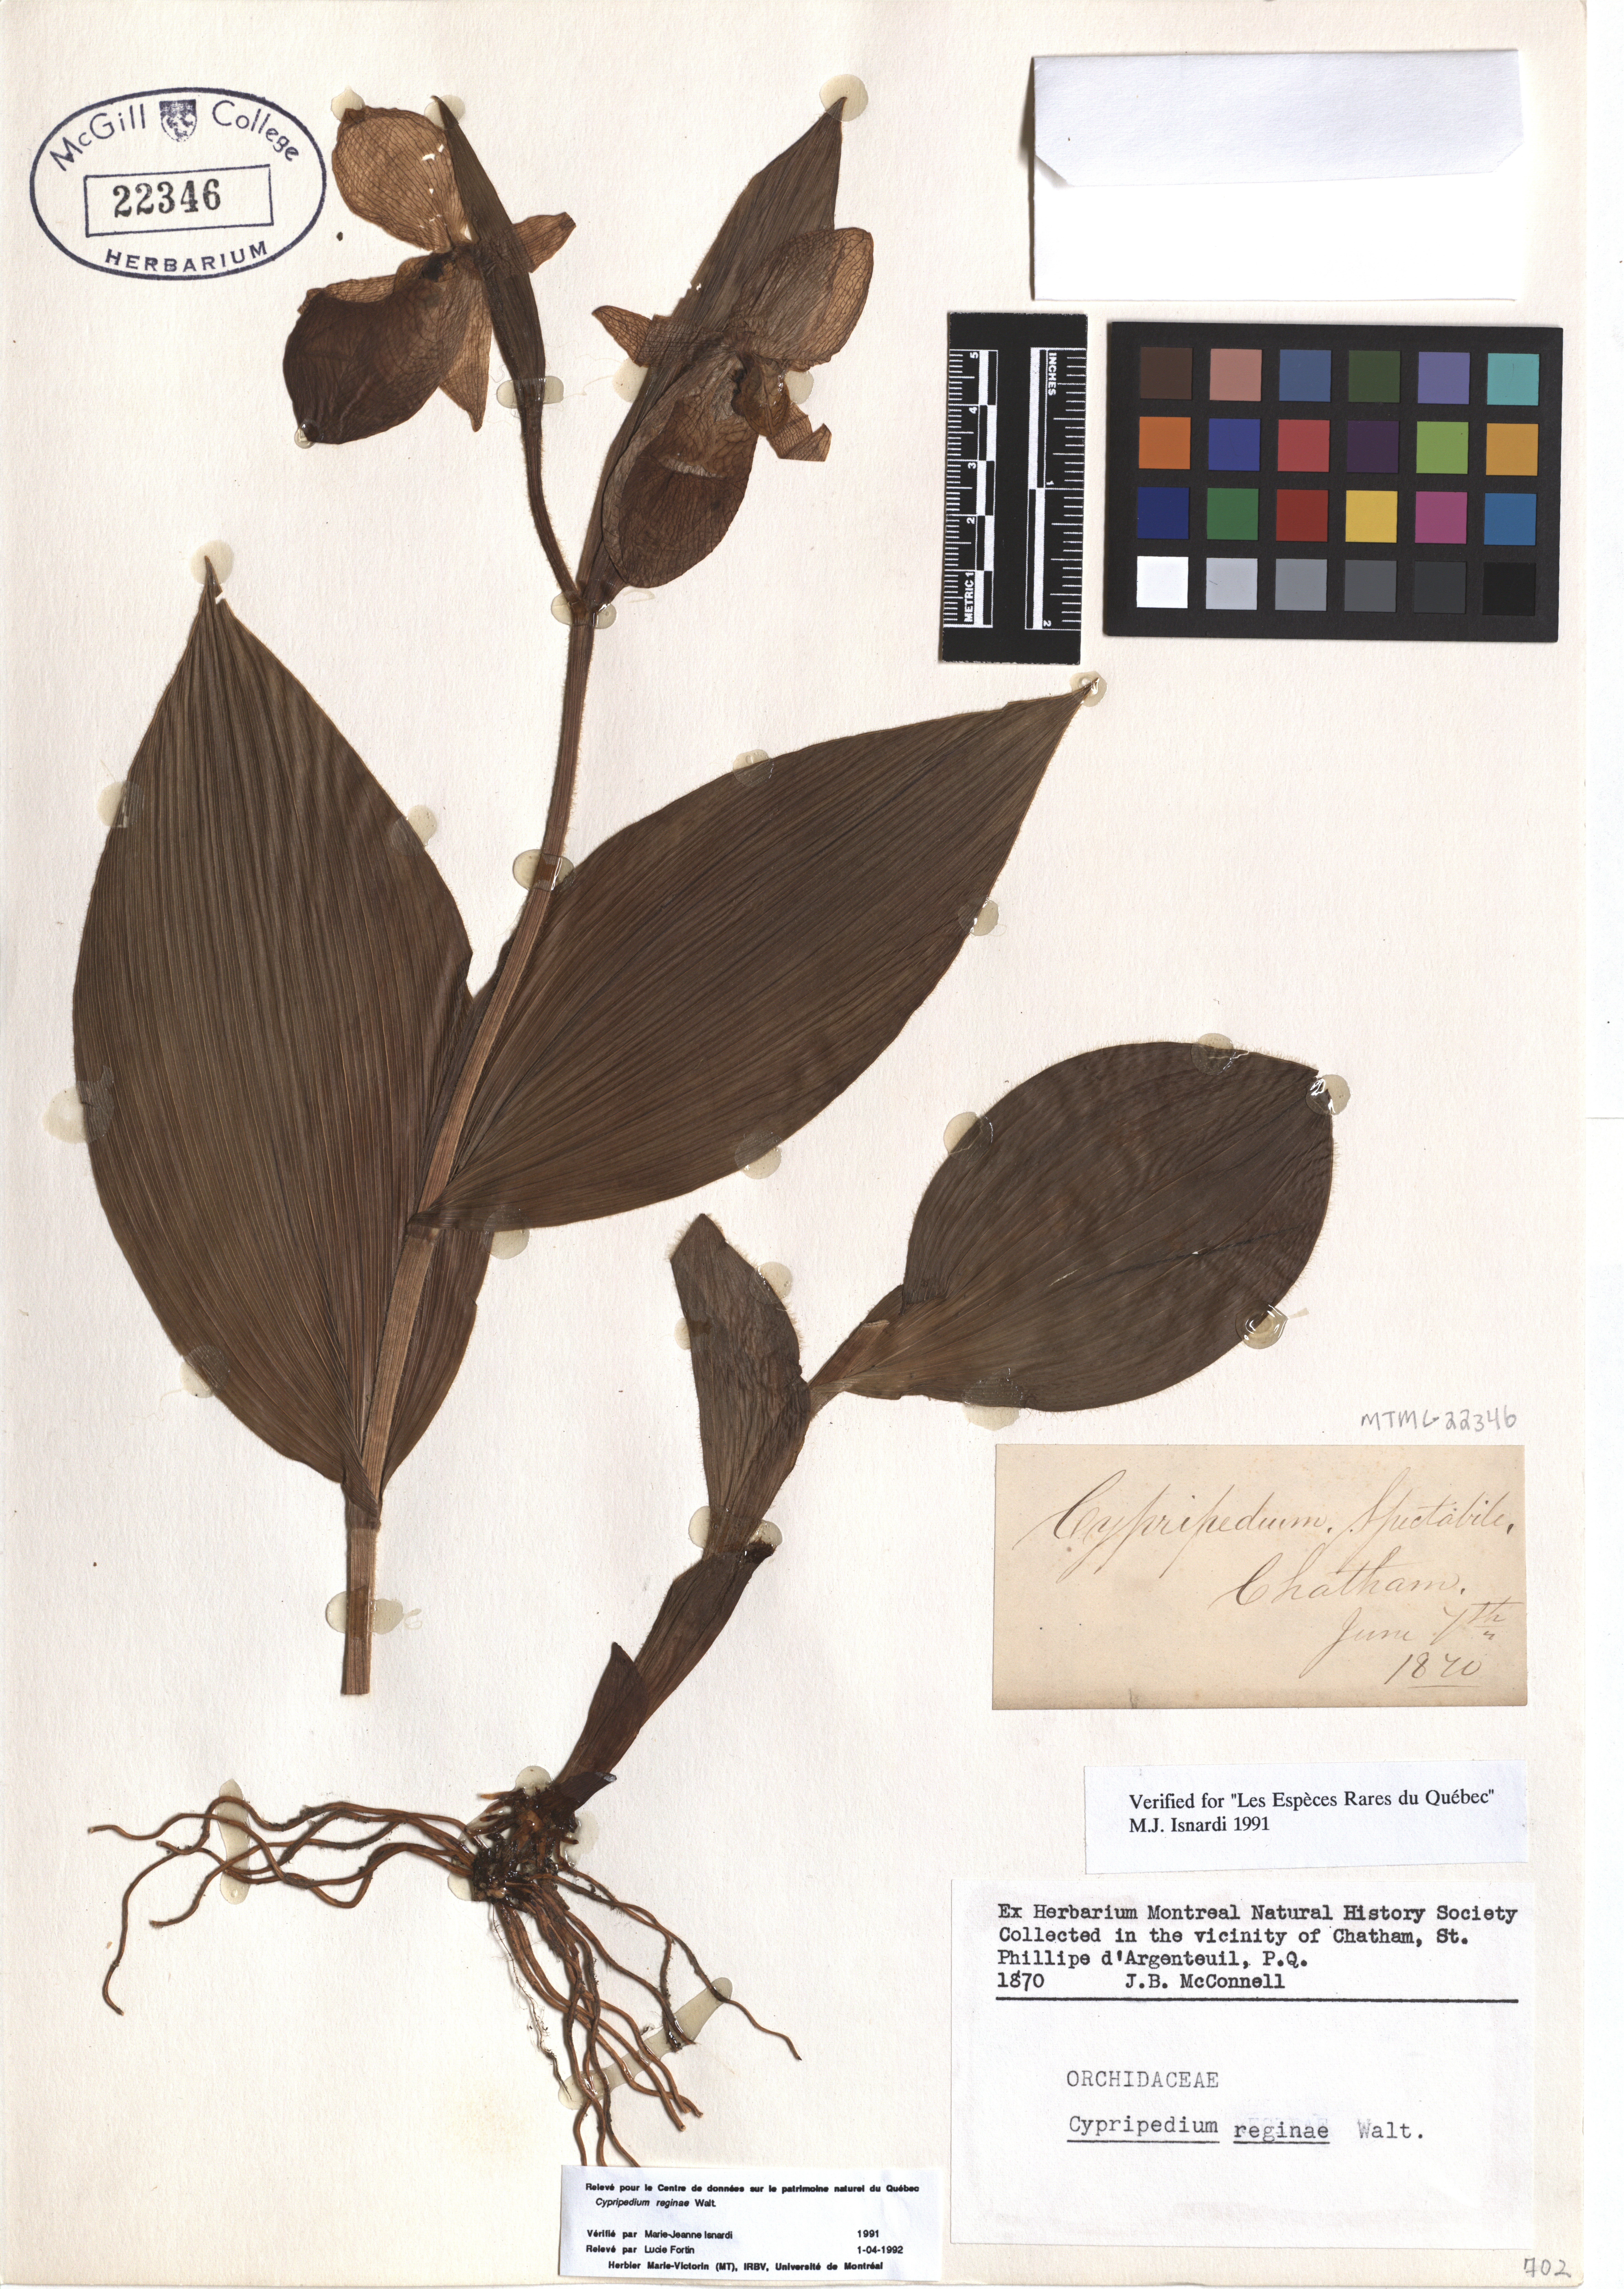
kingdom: Plantae
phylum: Tracheophyta
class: Liliopsida
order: Asparagales
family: Orchidaceae
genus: Cypripedium
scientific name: Cypripedium reginae
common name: Queen lady's-slipper
